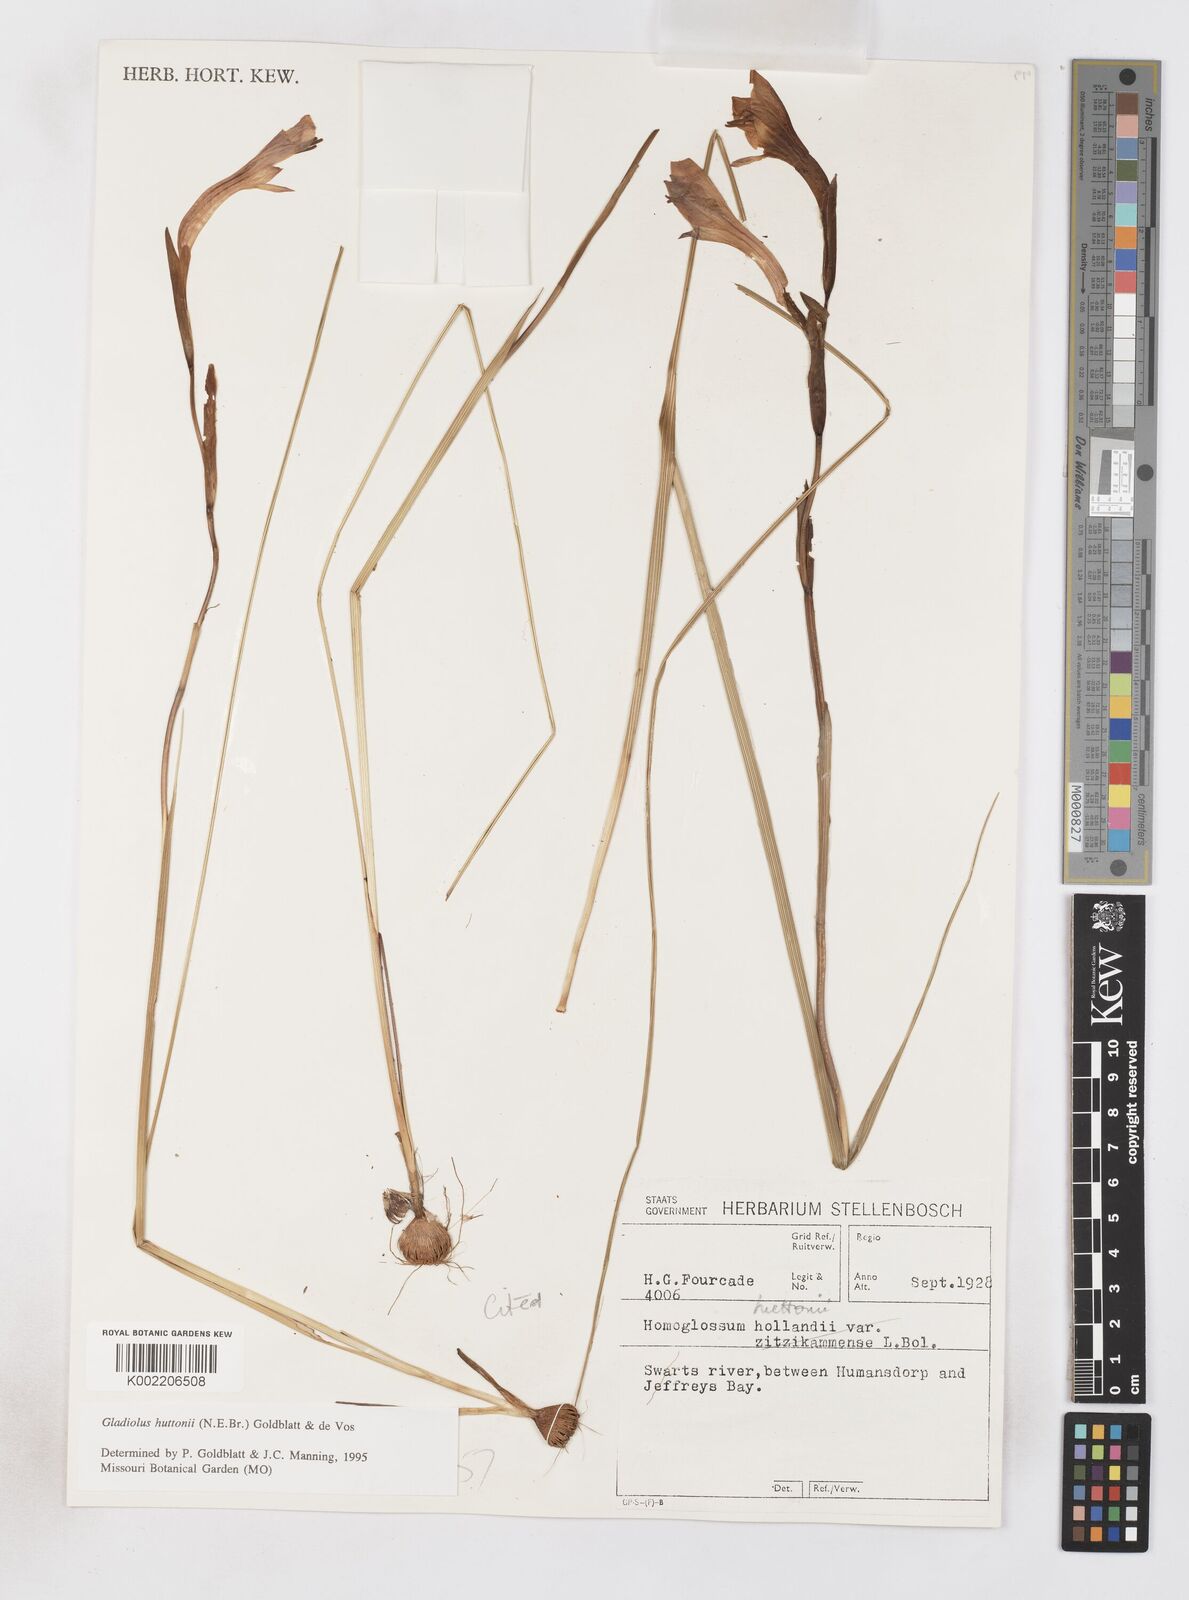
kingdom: Plantae
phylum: Tracheophyta
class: Liliopsida
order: Asparagales
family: Iridaceae
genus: Gladiolus
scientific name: Gladiolus huttonii
